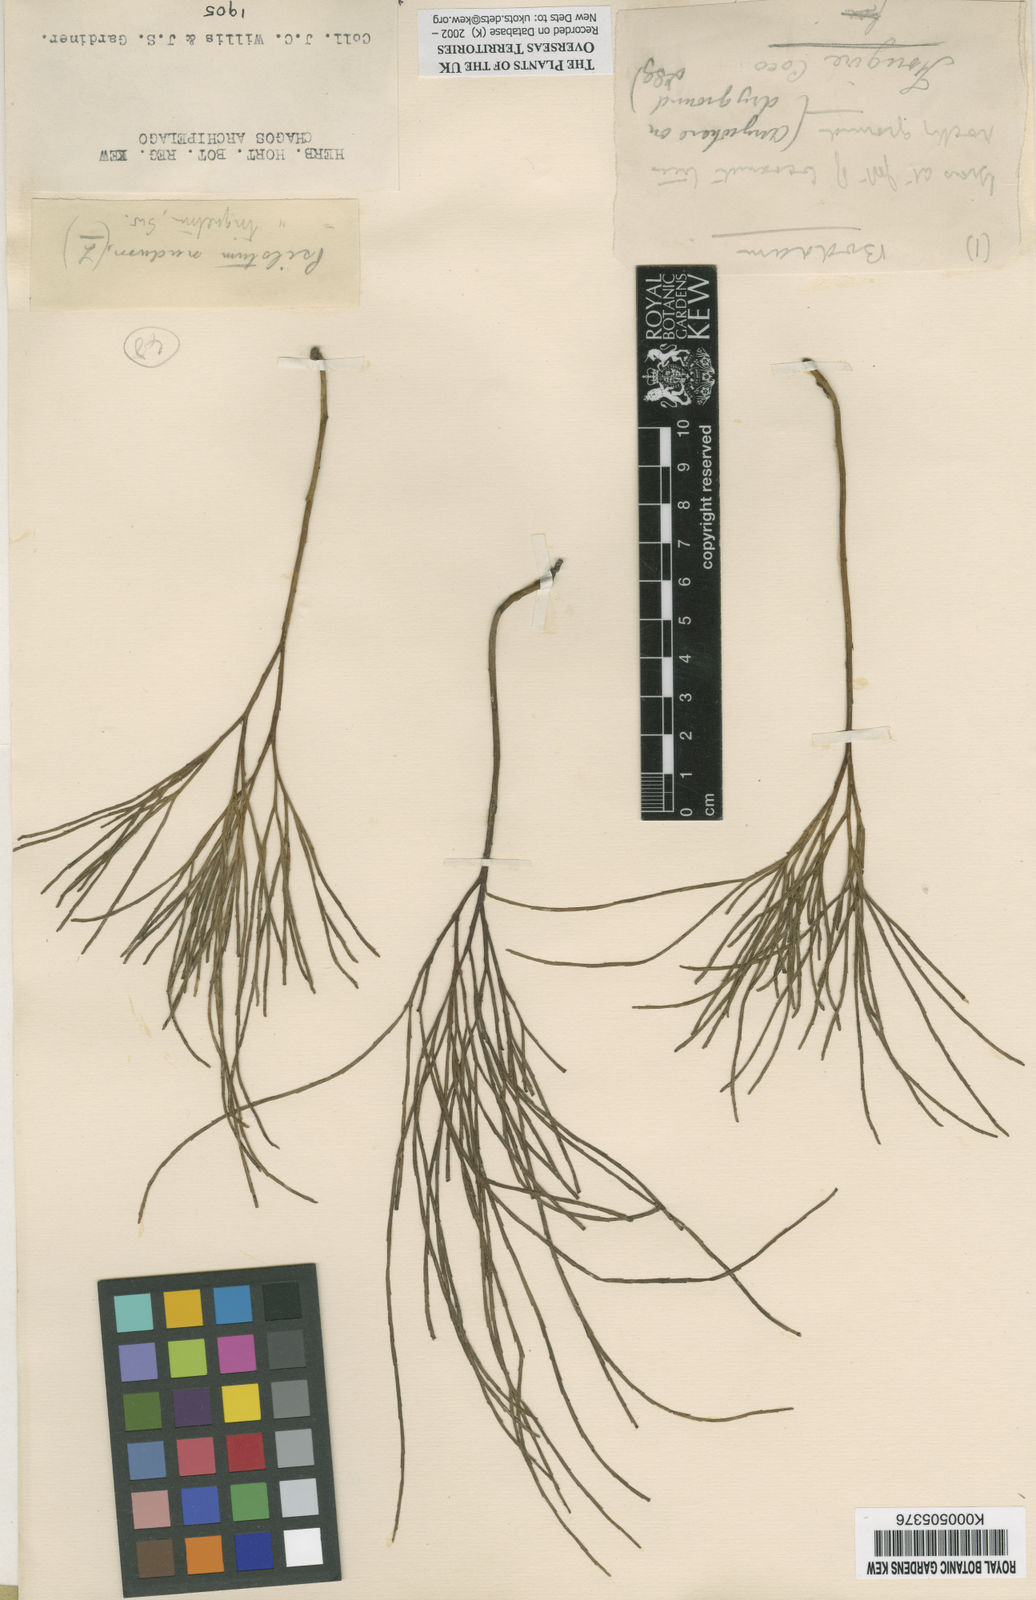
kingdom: Plantae
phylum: Tracheophyta
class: Polypodiopsida
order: Psilotales
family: Psilotaceae
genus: Psilotum
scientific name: Psilotum
